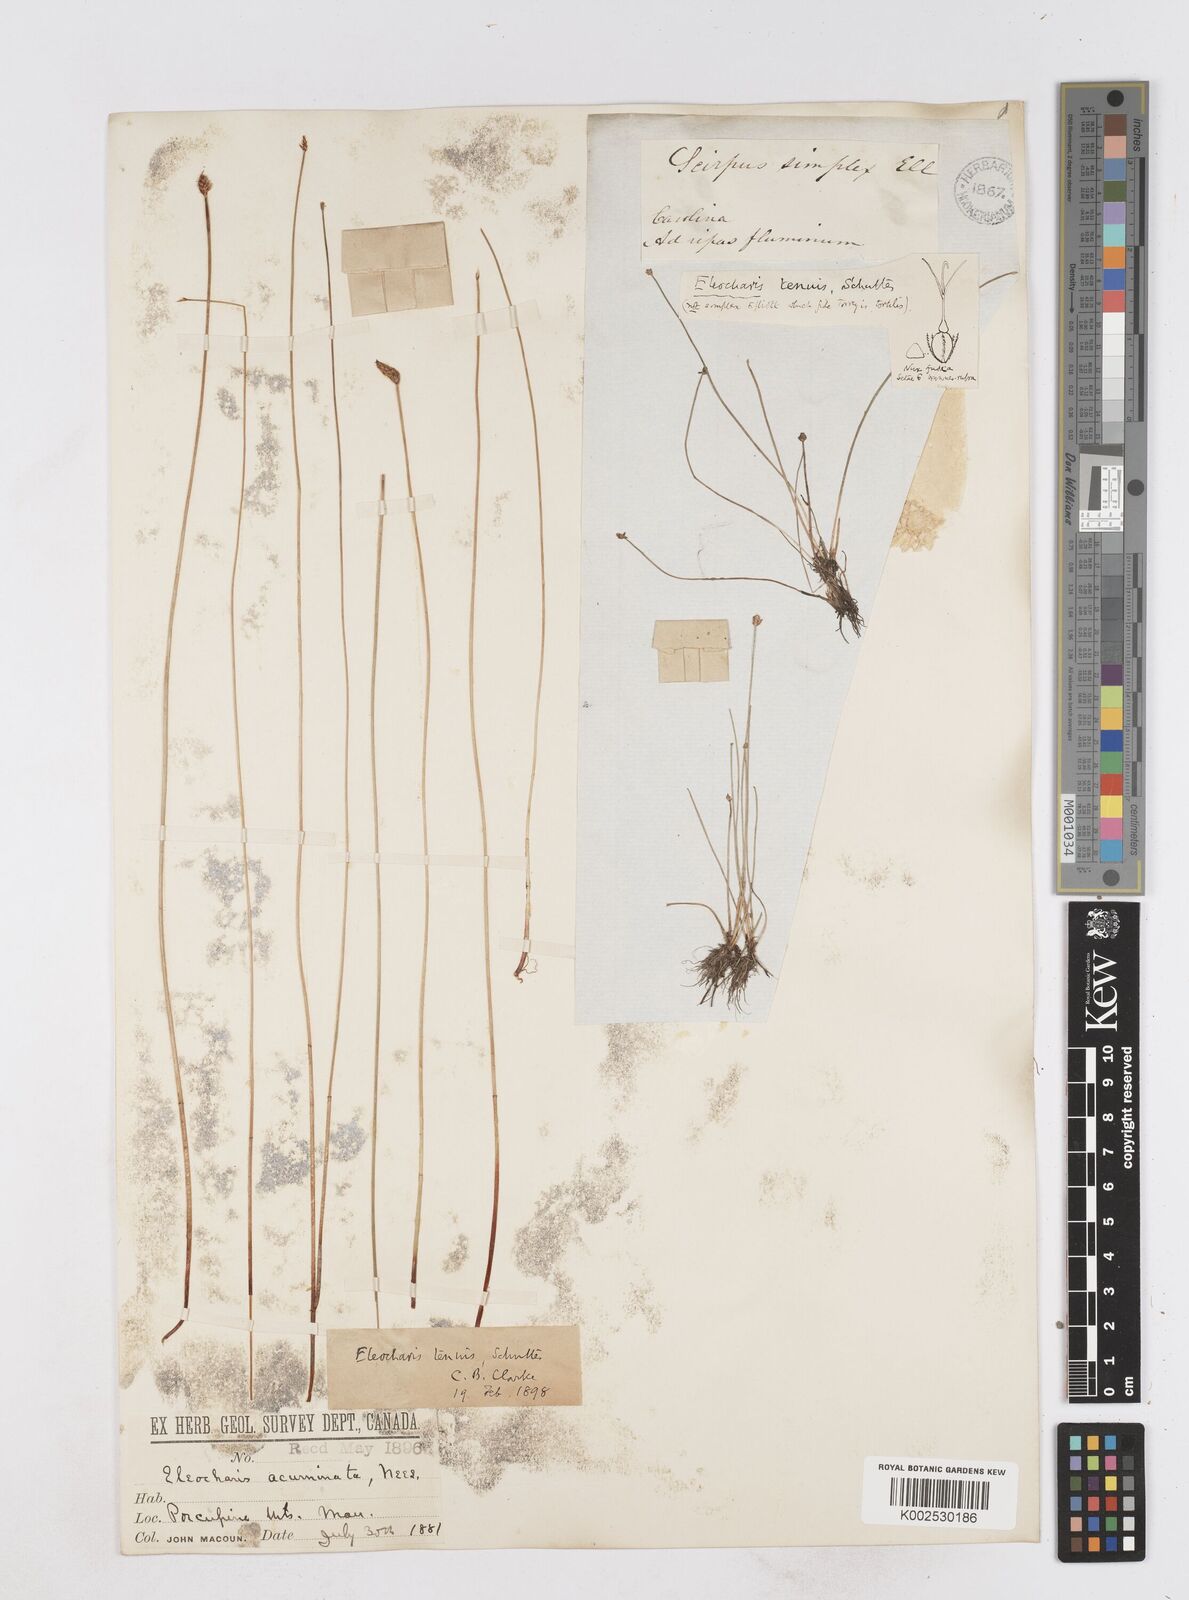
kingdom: Plantae
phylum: Tracheophyta
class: Liliopsida
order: Poales
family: Cyperaceae
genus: Eleocharis
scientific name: Eleocharis tenuis
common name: Dog's hair
